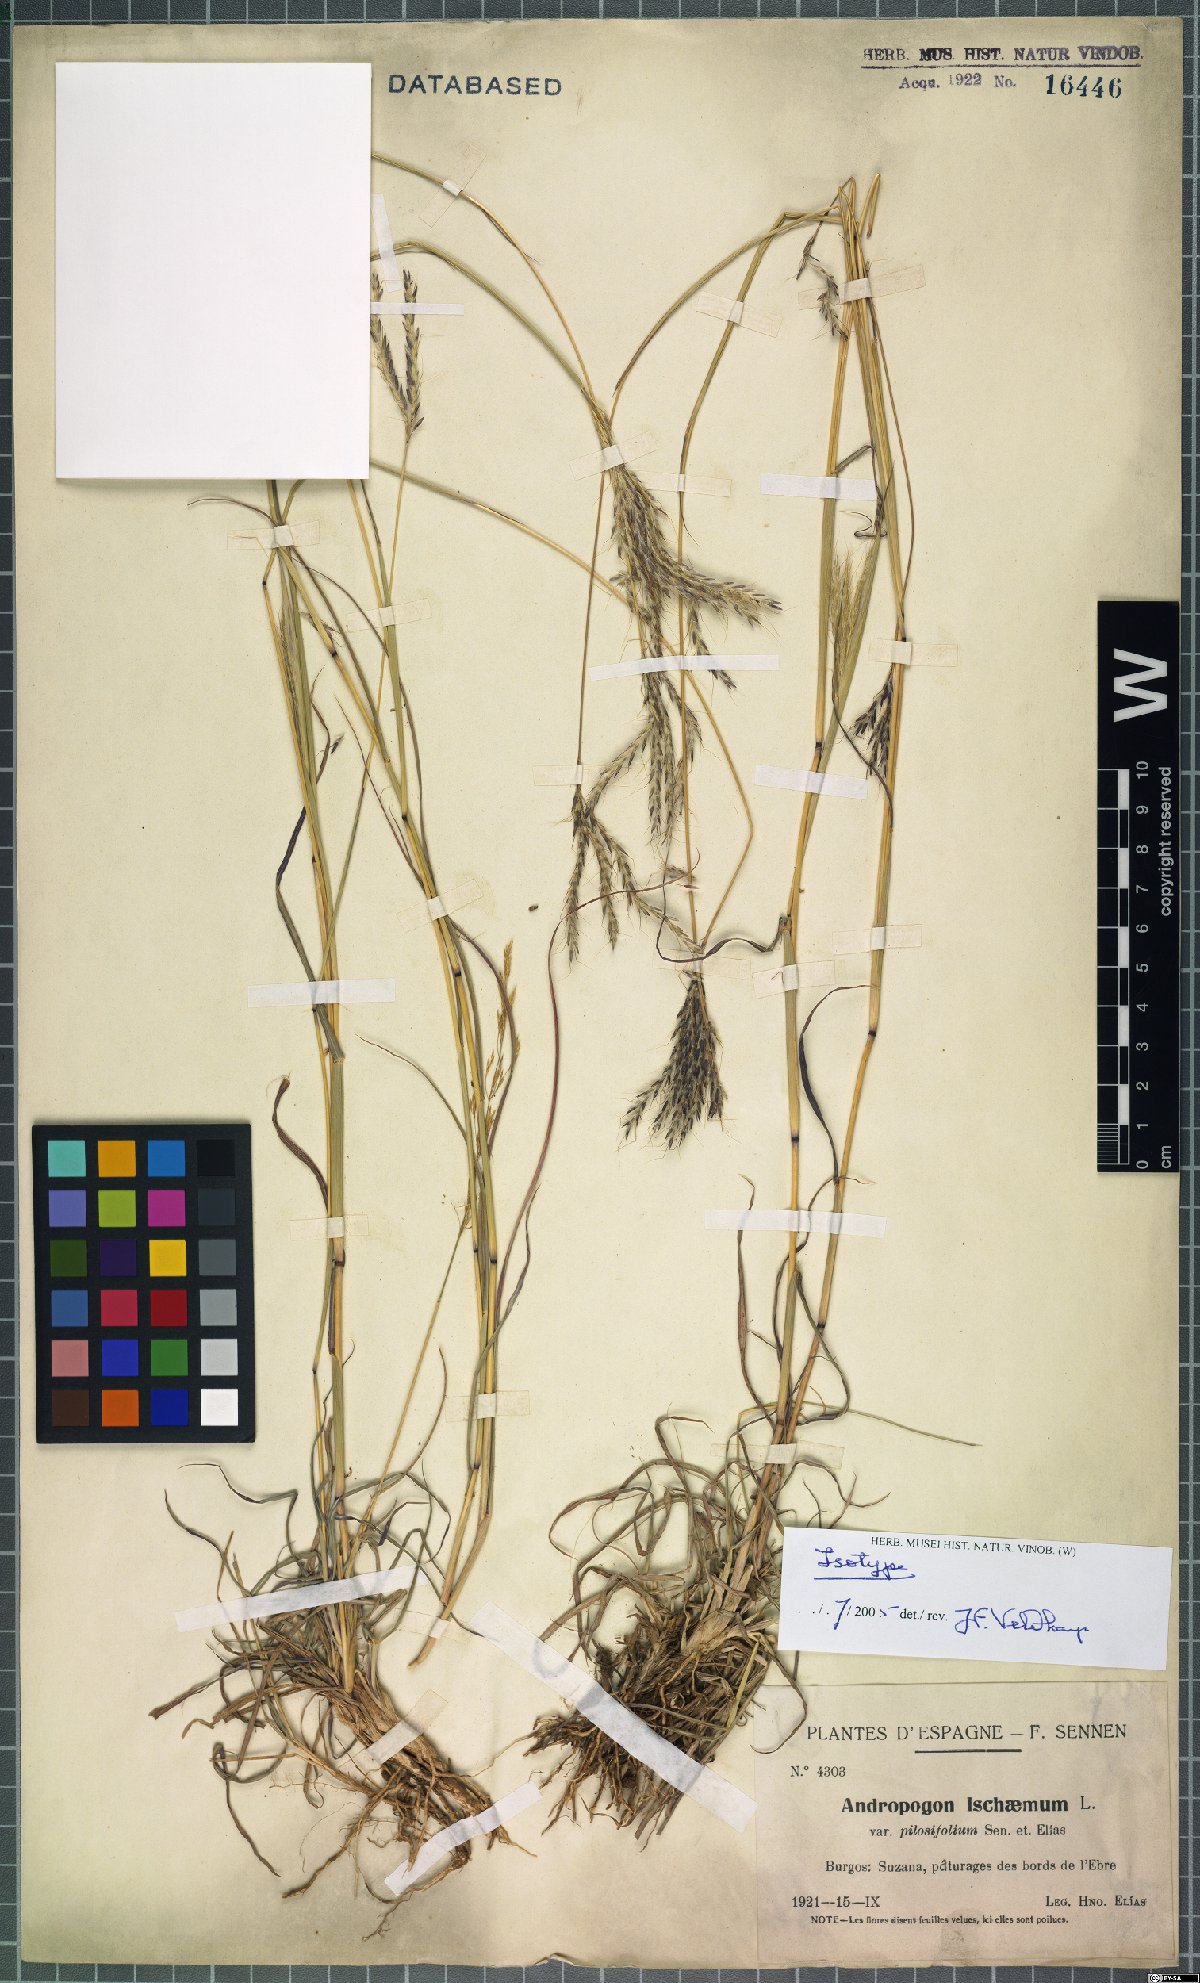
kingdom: Plantae
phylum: Tracheophyta
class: Liliopsida
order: Poales
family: Poaceae
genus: Andropogon
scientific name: Andropogon ischaemum
